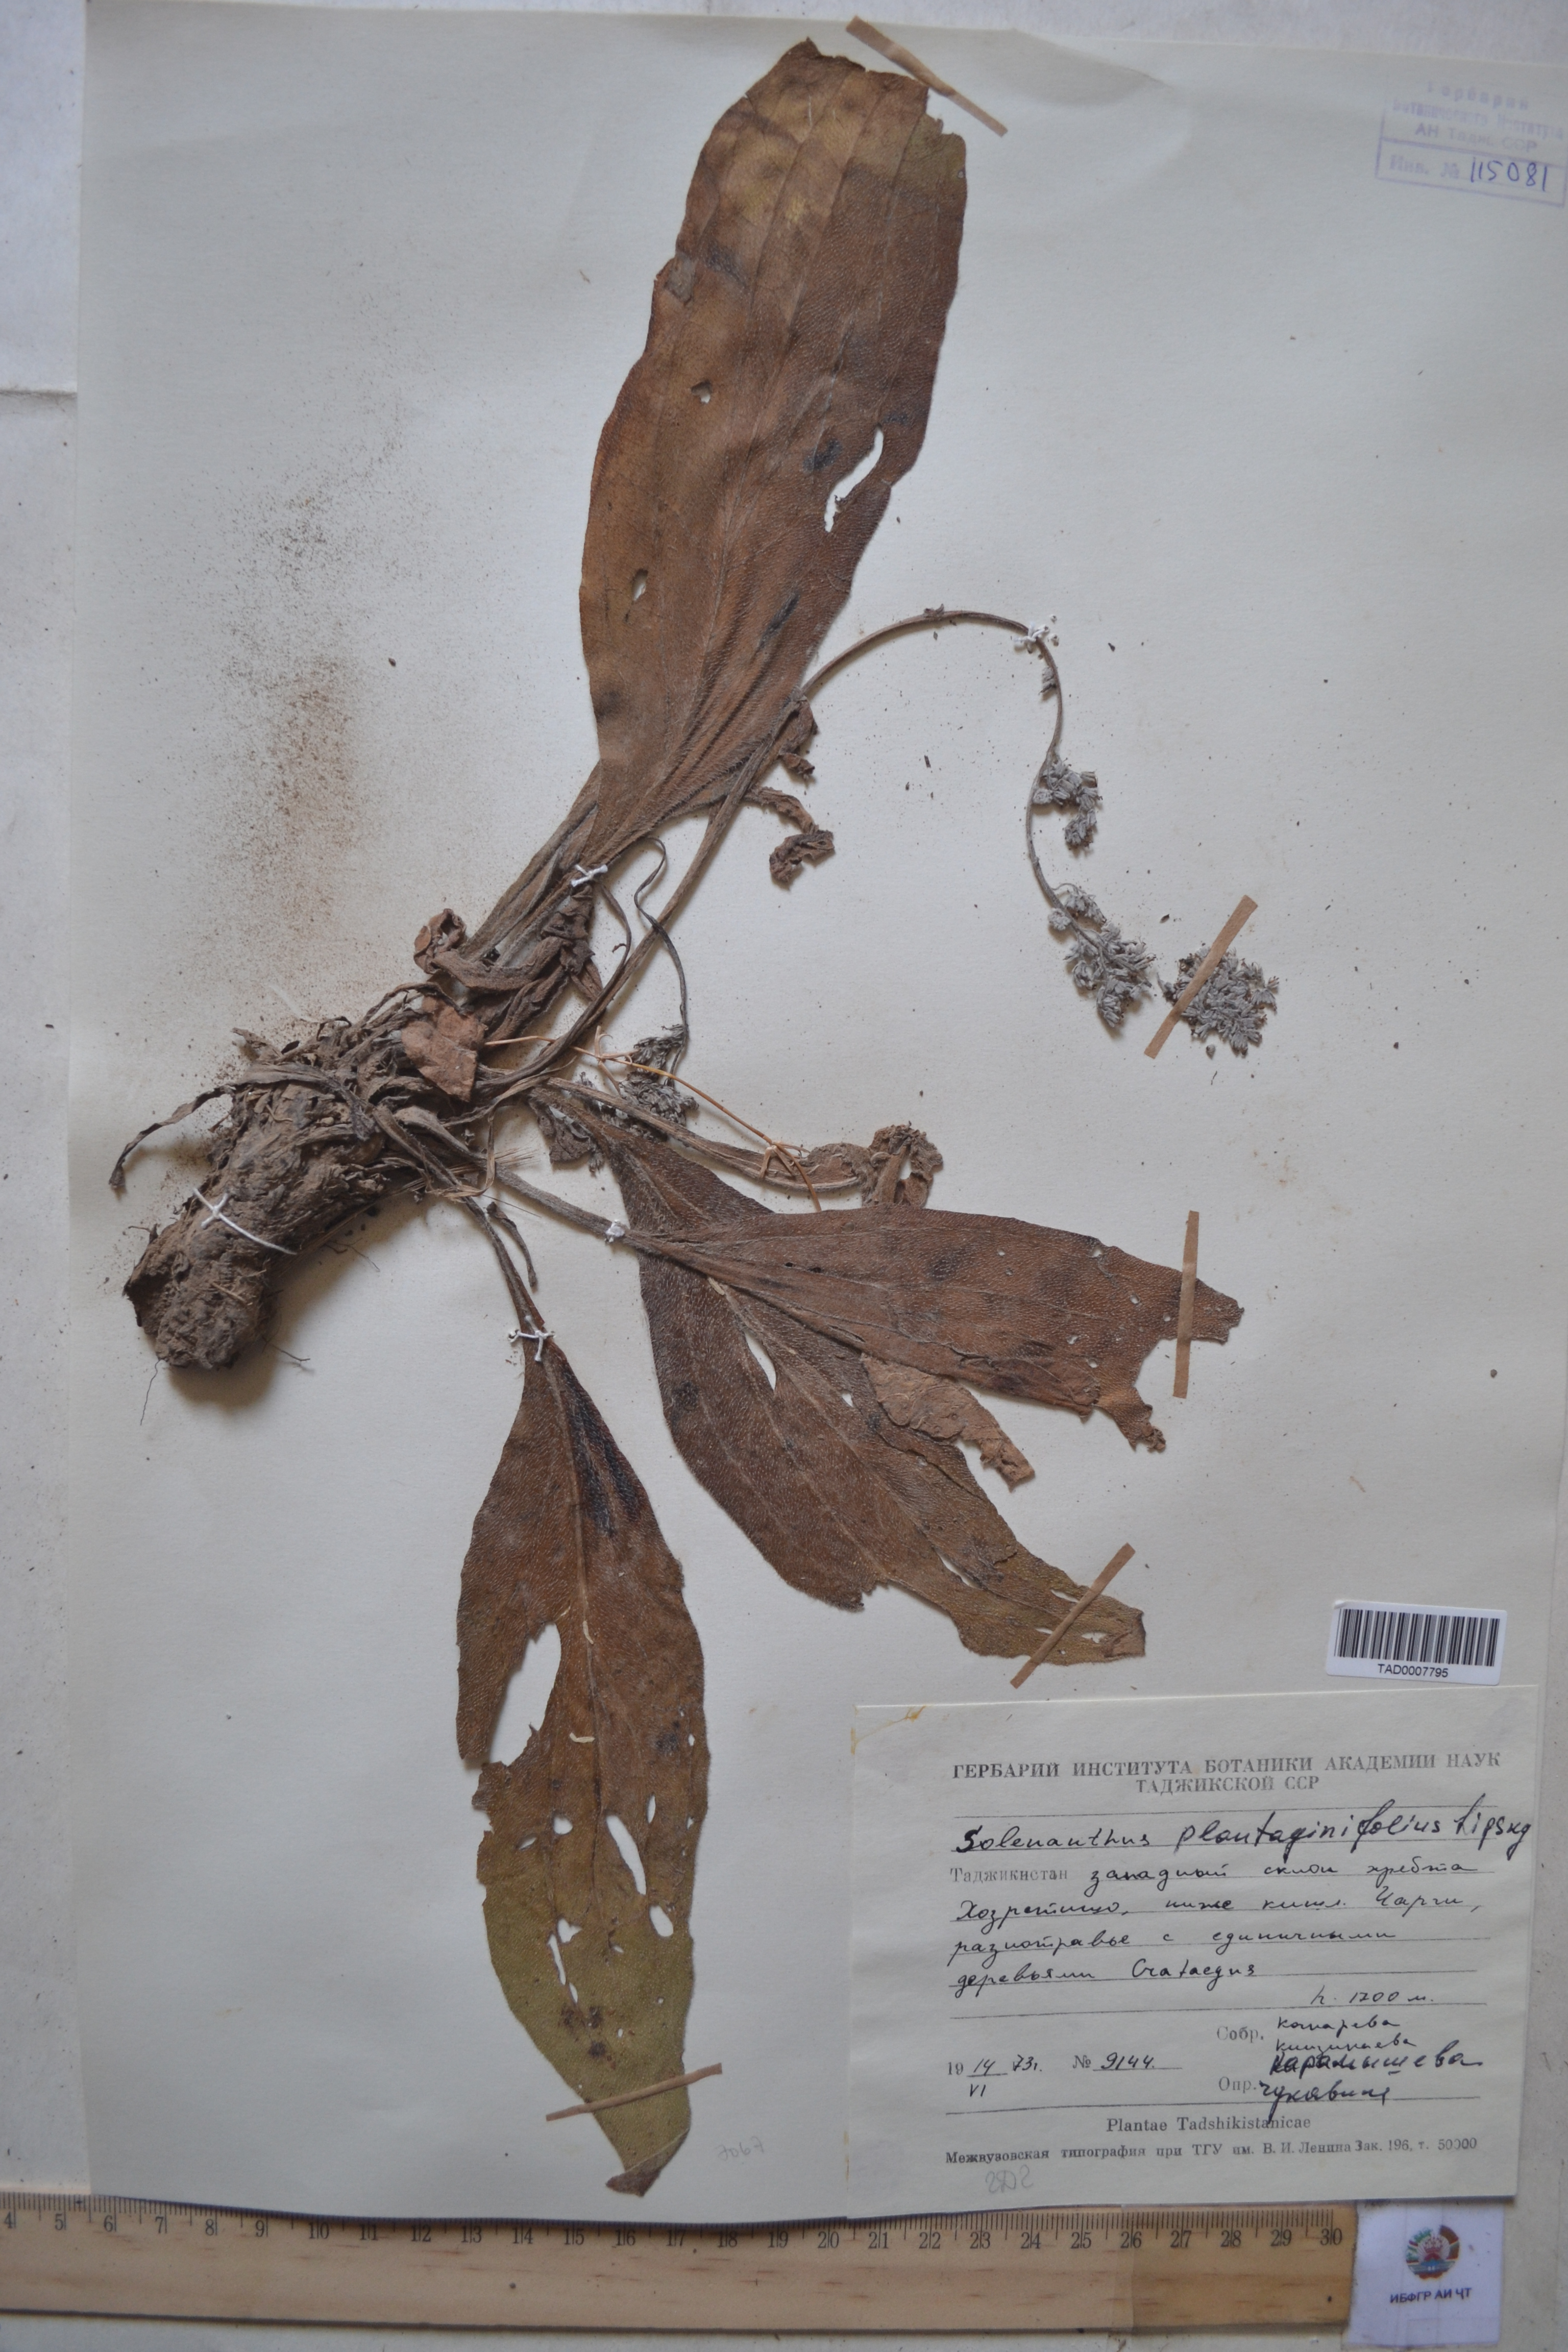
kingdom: Plantae
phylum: Tracheophyta
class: Magnoliopsida
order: Boraginales
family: Boraginaceae
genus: Solenanthus
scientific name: Solenanthus plantaginifolius
